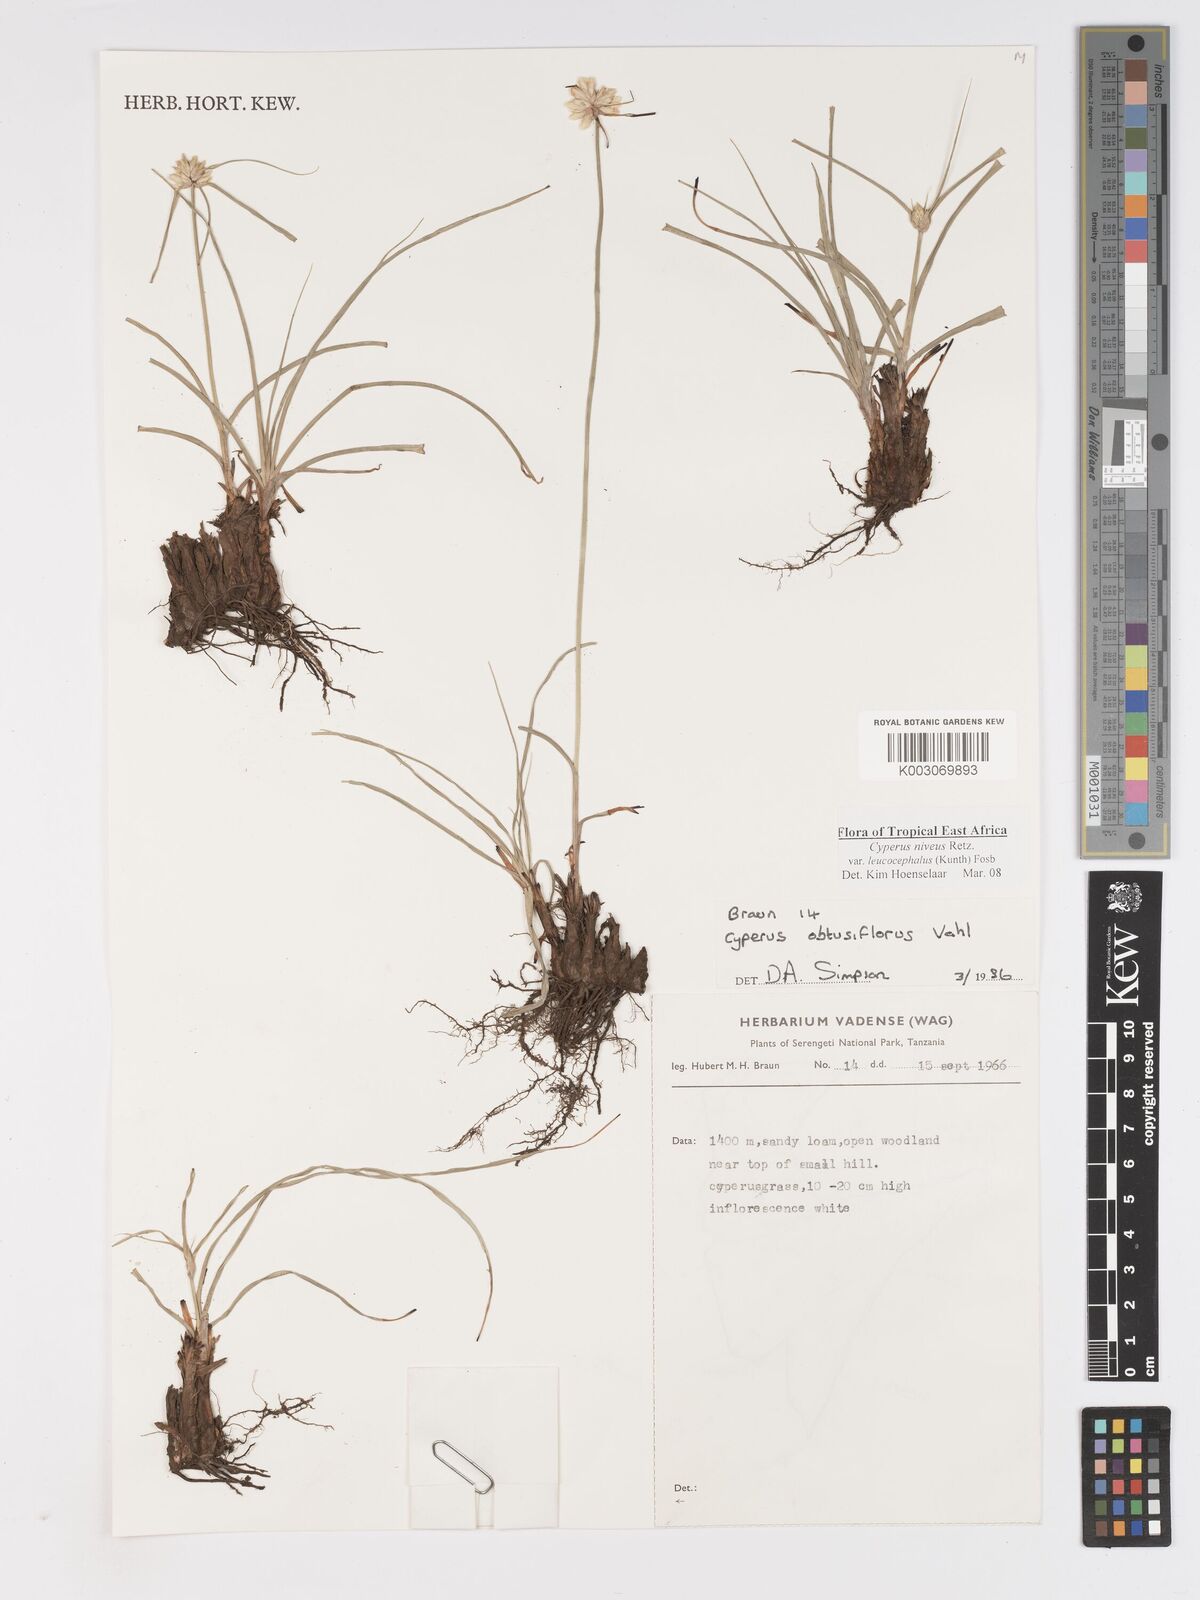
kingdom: Plantae
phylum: Tracheophyta
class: Liliopsida
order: Poales
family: Cyperaceae
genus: Cyperus
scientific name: Cyperus niveus
